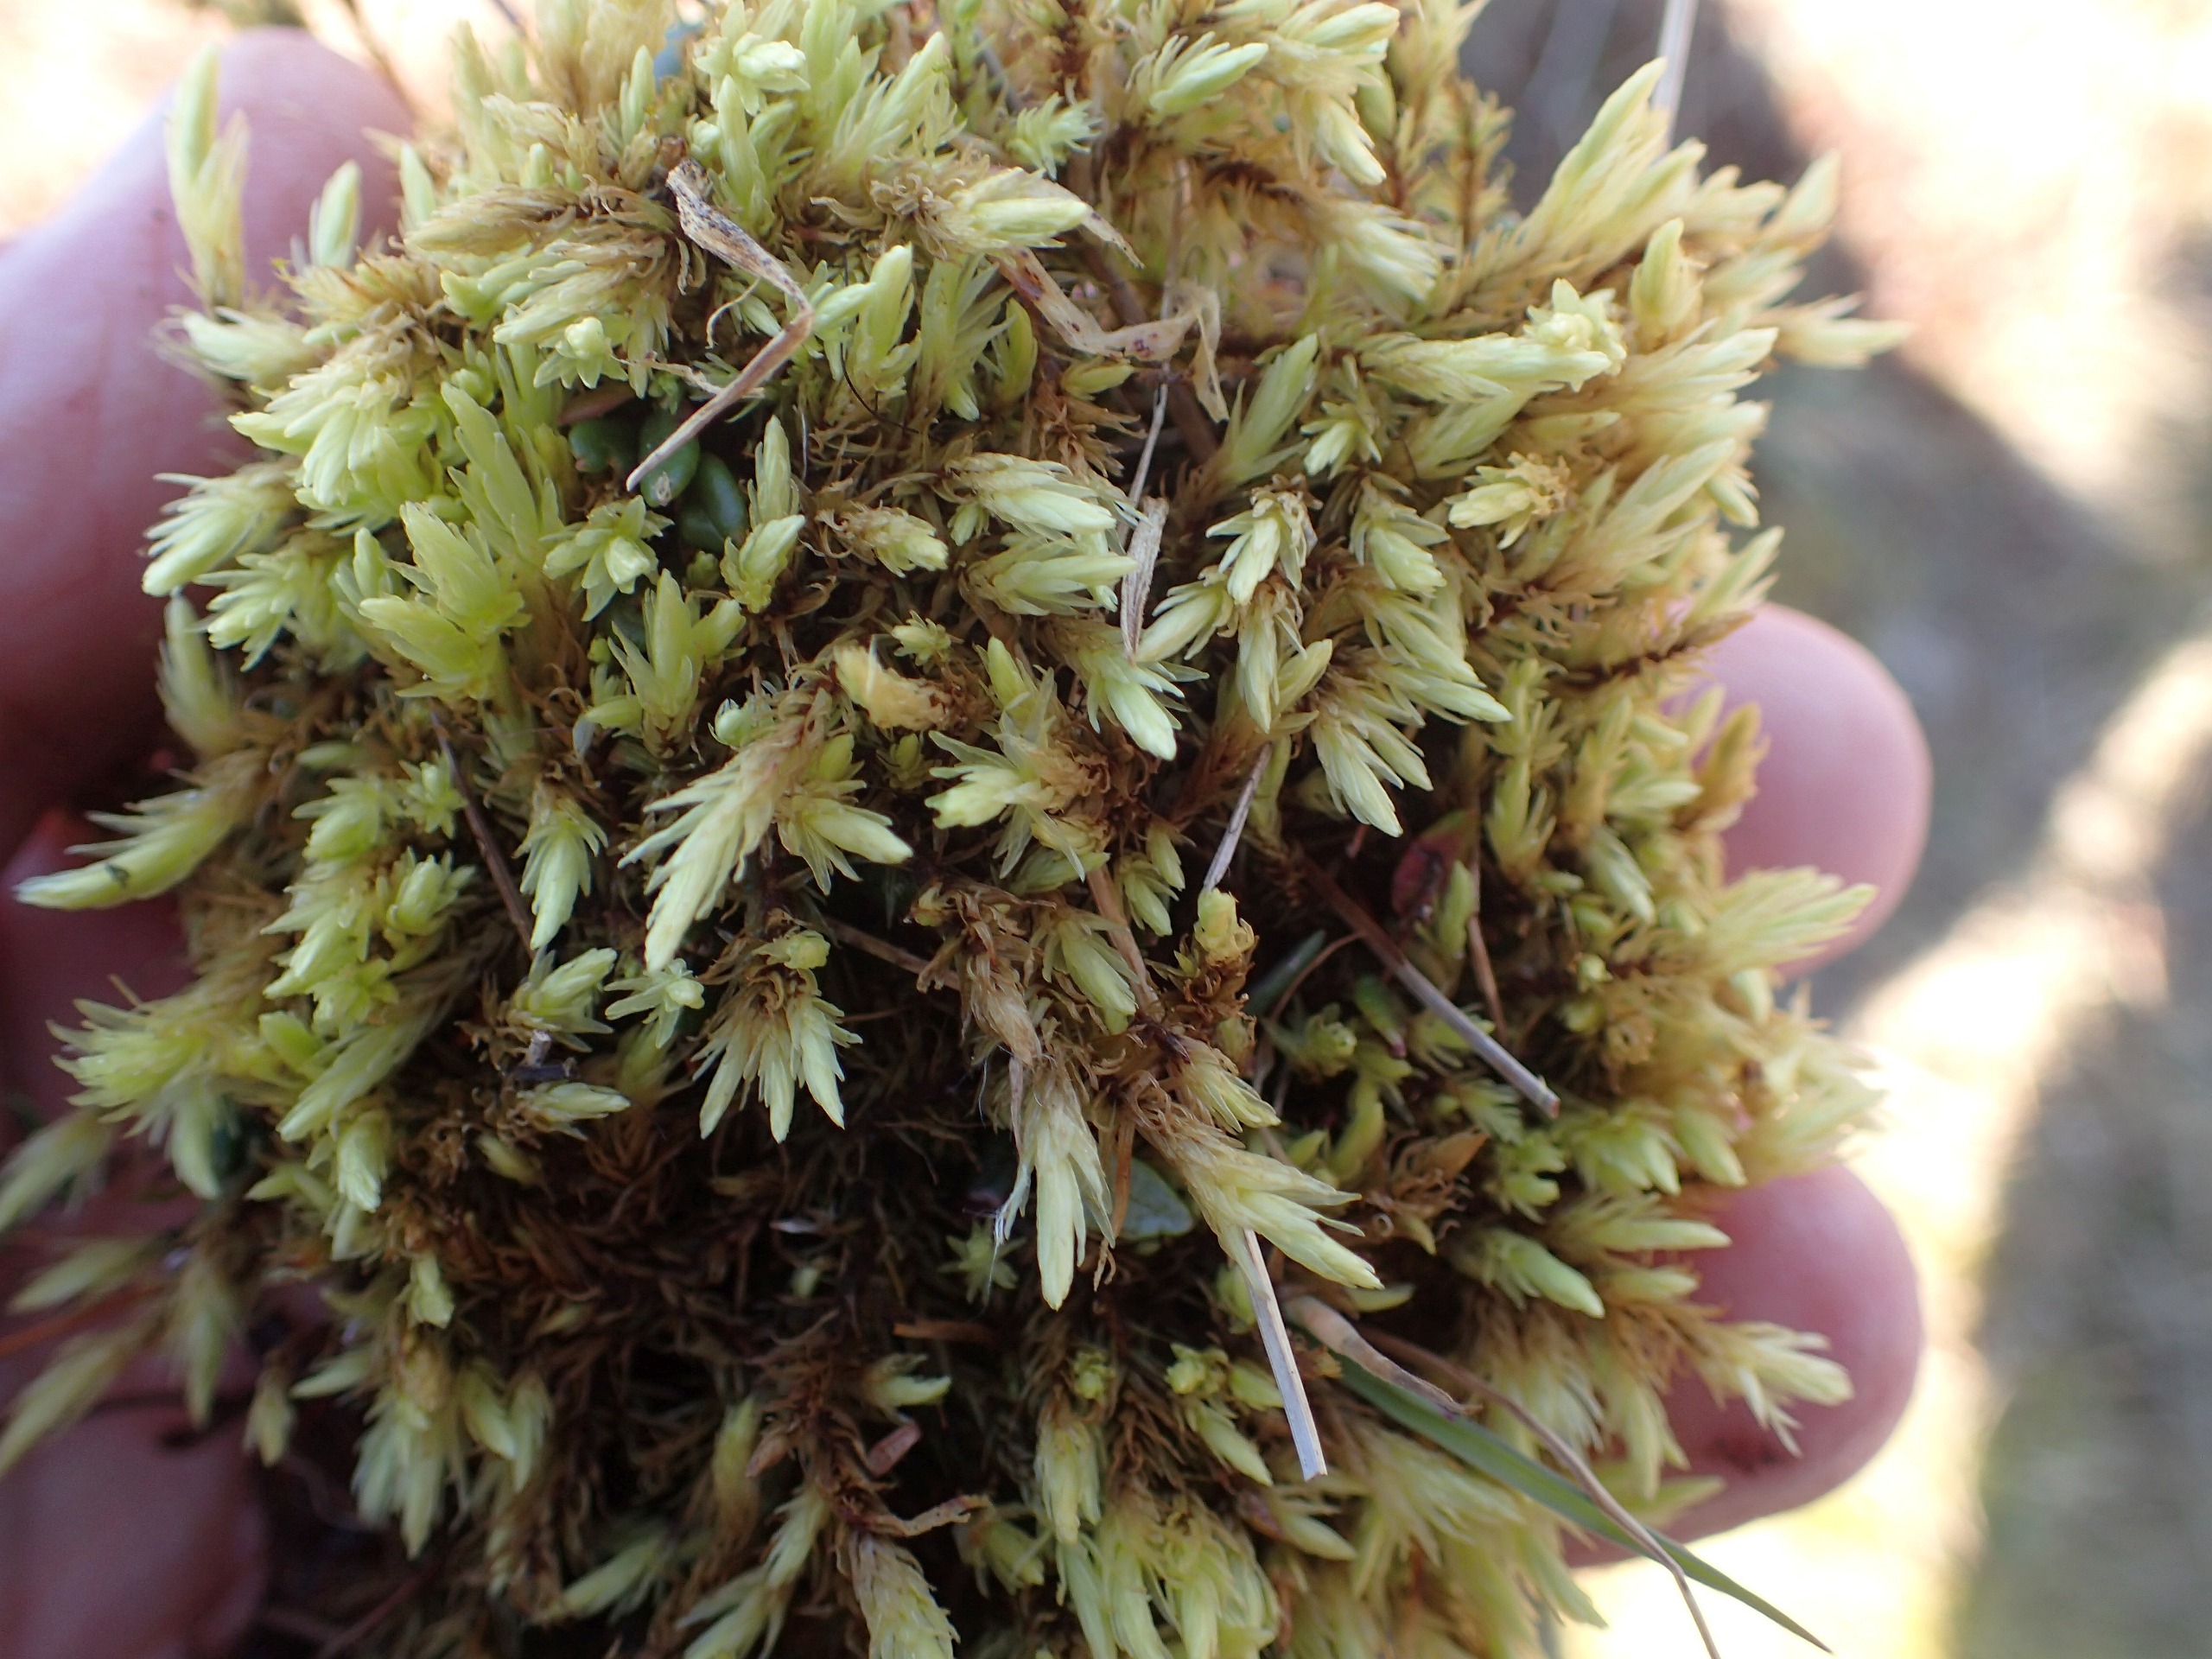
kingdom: Plantae
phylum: Bryophyta
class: Bryopsida
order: Aulacomniales
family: Aulacomniaceae
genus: Aulacomnium
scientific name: Aulacomnium palustre
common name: Almindelig filtmos
